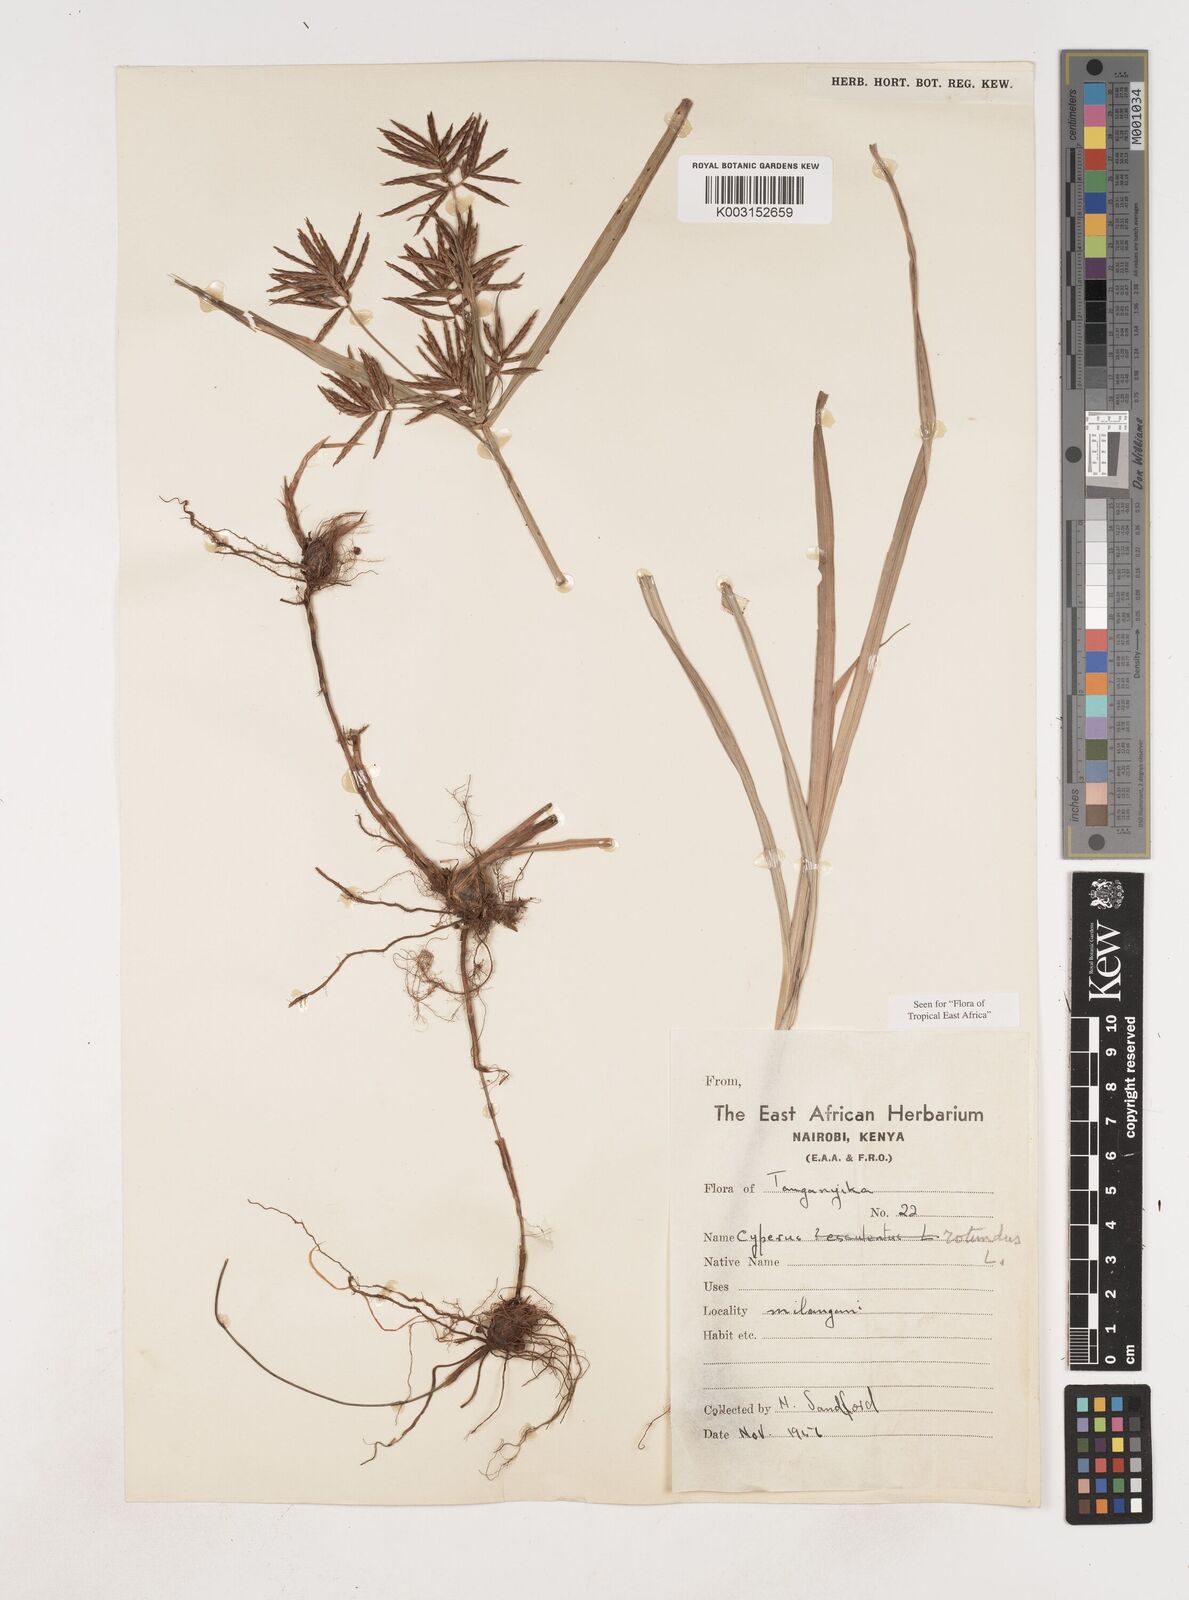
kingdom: Plantae
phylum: Tracheophyta
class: Liliopsida
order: Poales
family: Cyperaceae
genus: Cyperus
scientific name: Cyperus rotundus
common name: Nutgrass
